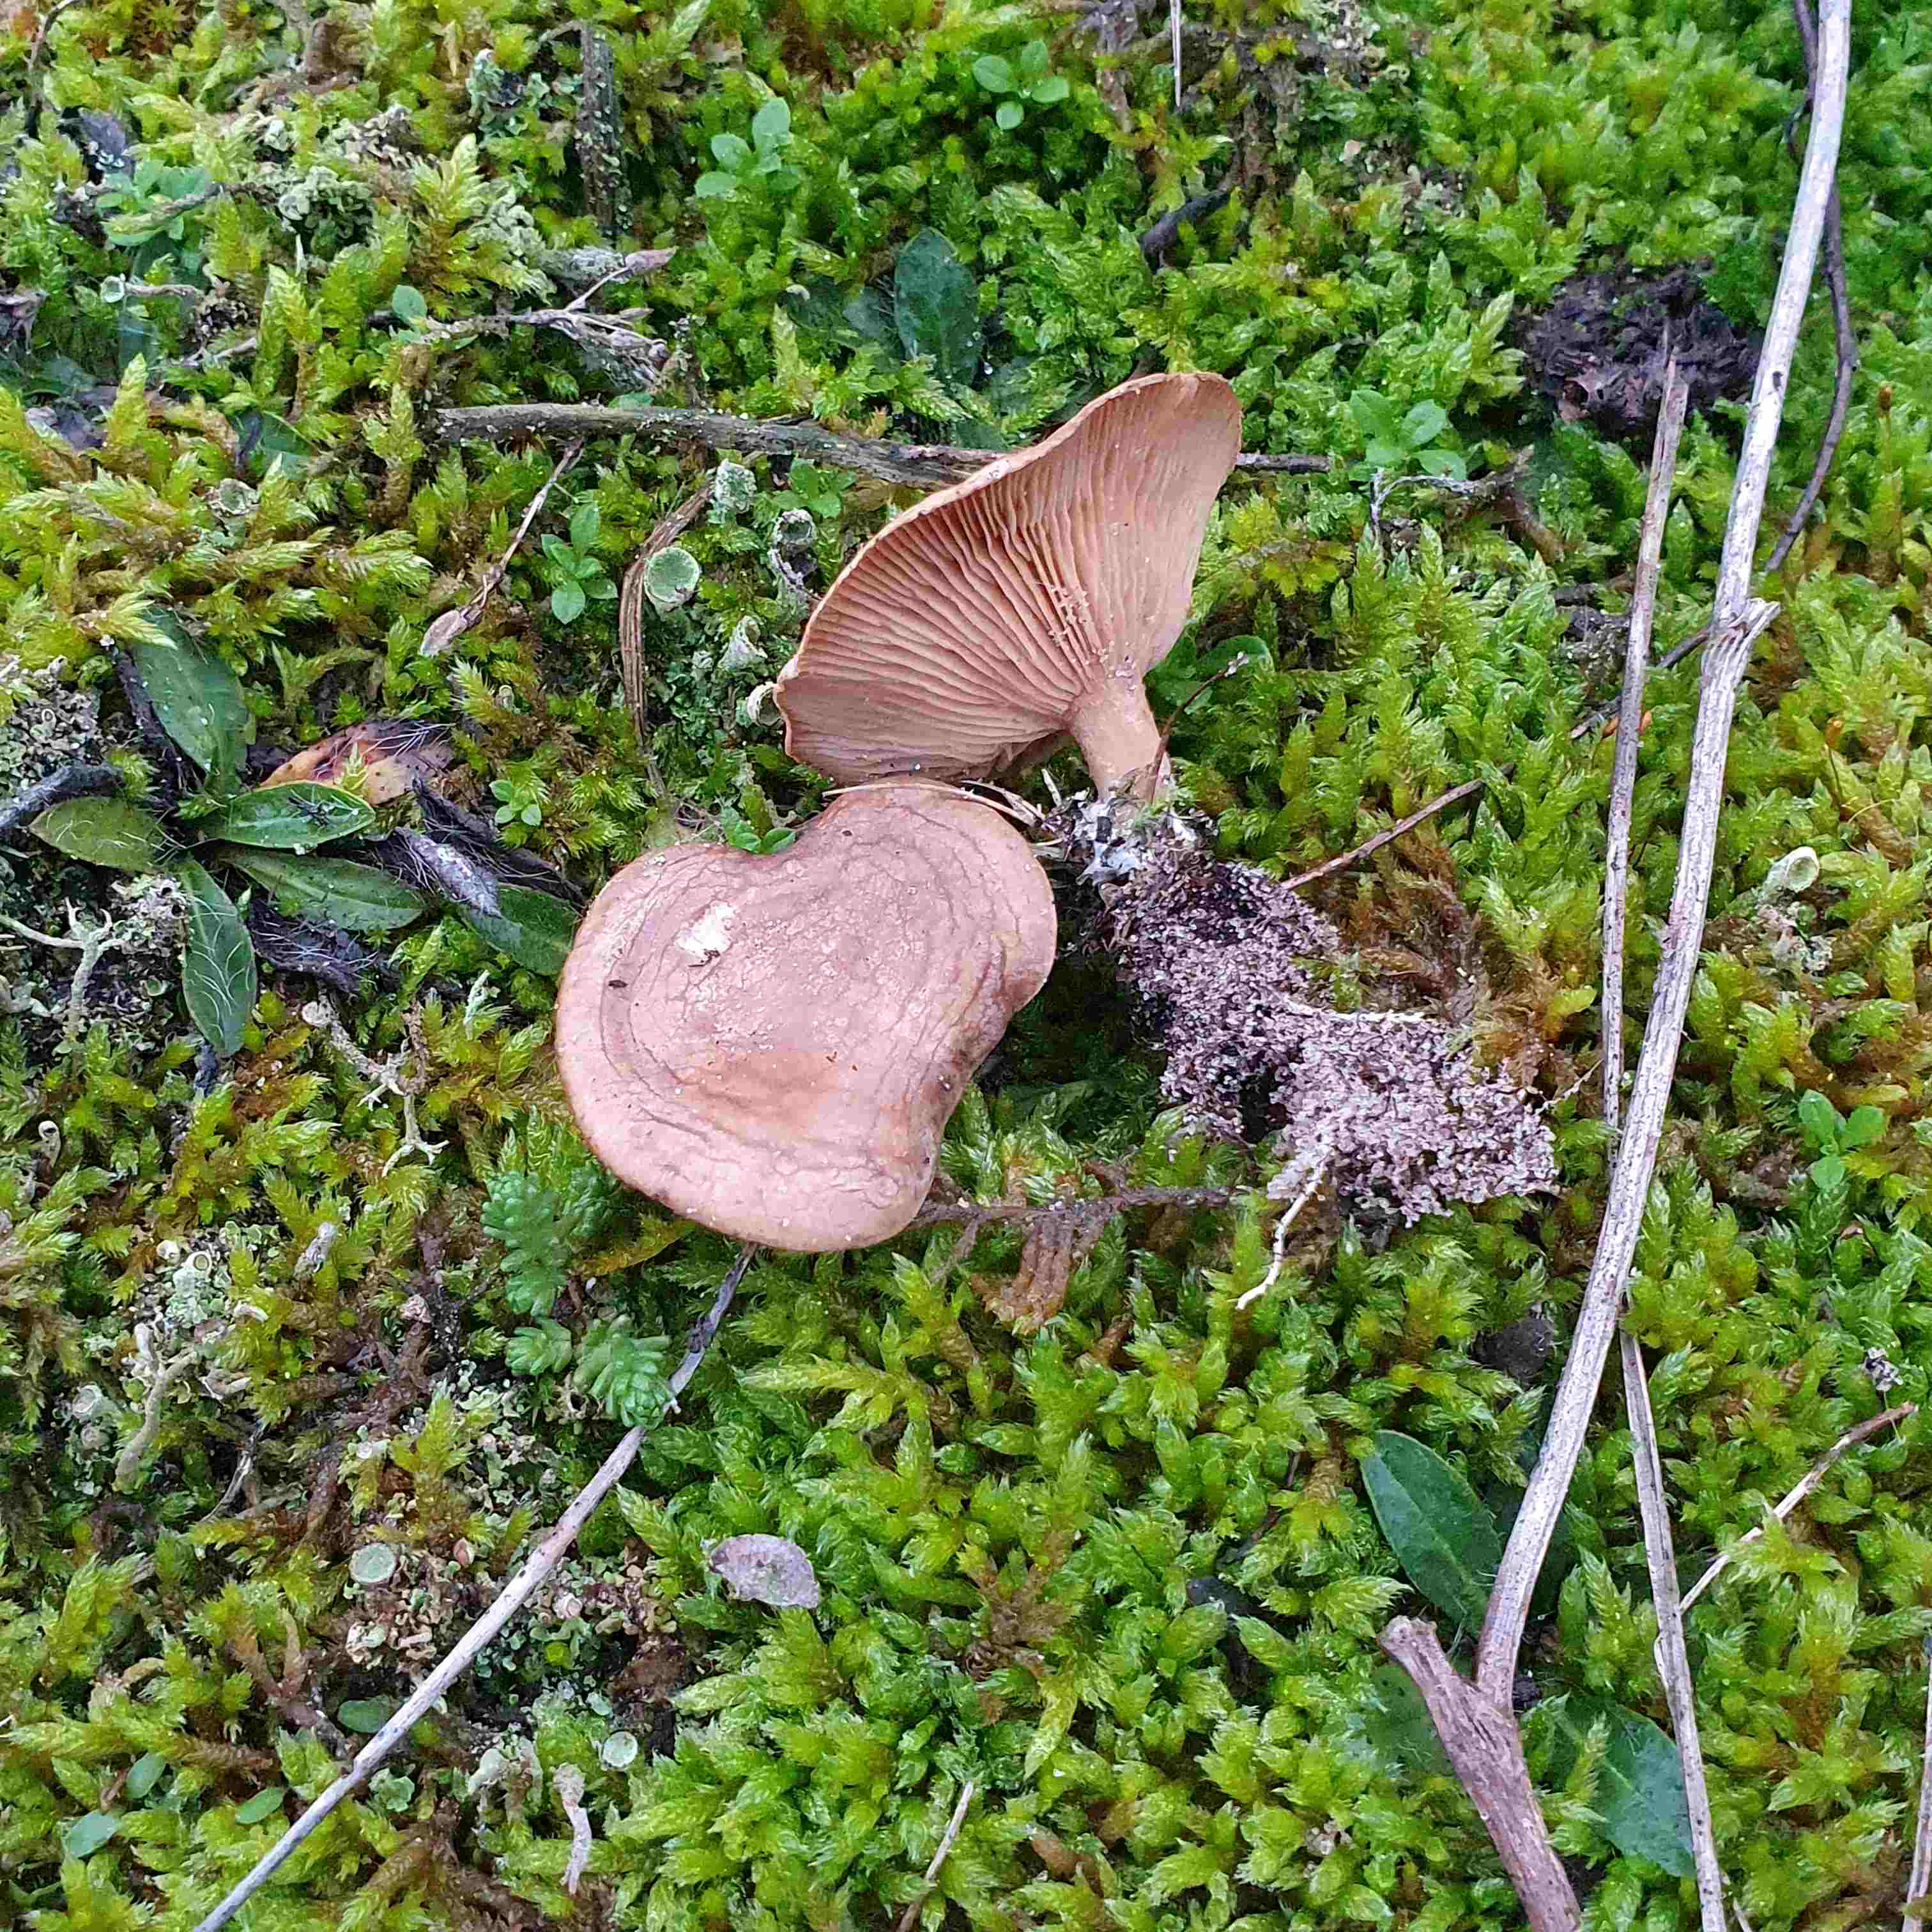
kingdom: Fungi
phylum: Basidiomycota
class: Agaricomycetes
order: Agaricales
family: Tricholomataceae
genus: Lulesia
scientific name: Lulesia
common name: sortnende troldhat
